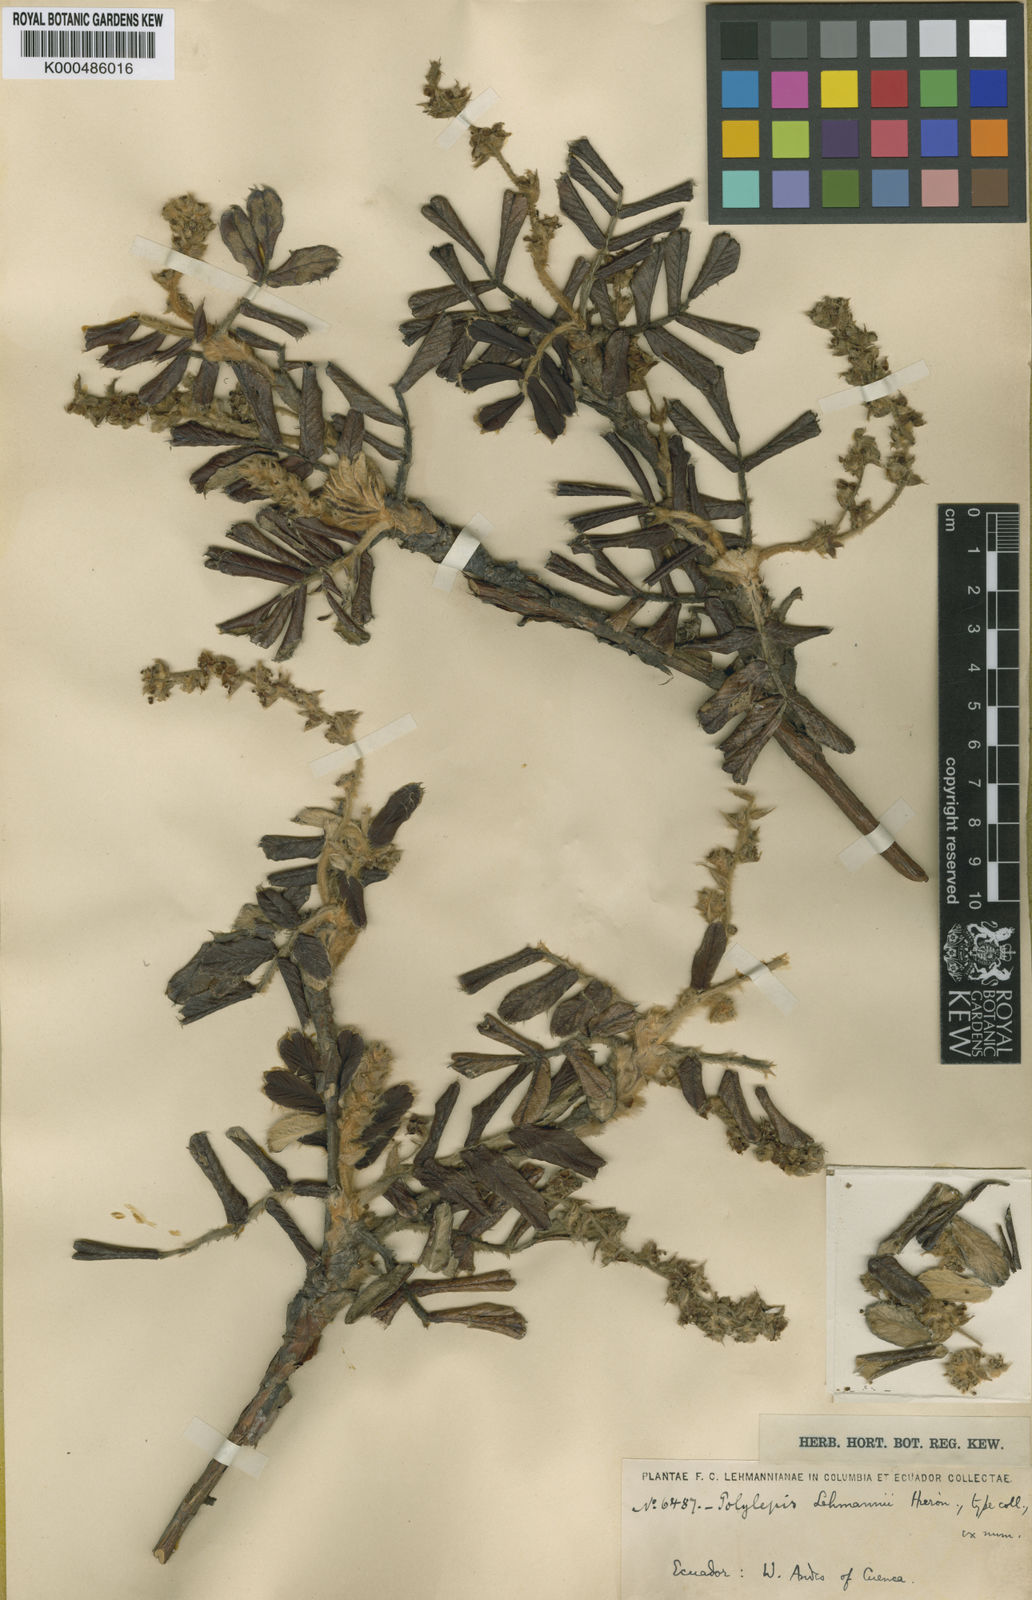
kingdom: Plantae
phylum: Tracheophyta
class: Magnoliopsida
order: Rosales
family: Rosaceae
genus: Polylepis
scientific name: Polylepis lanuginosa
